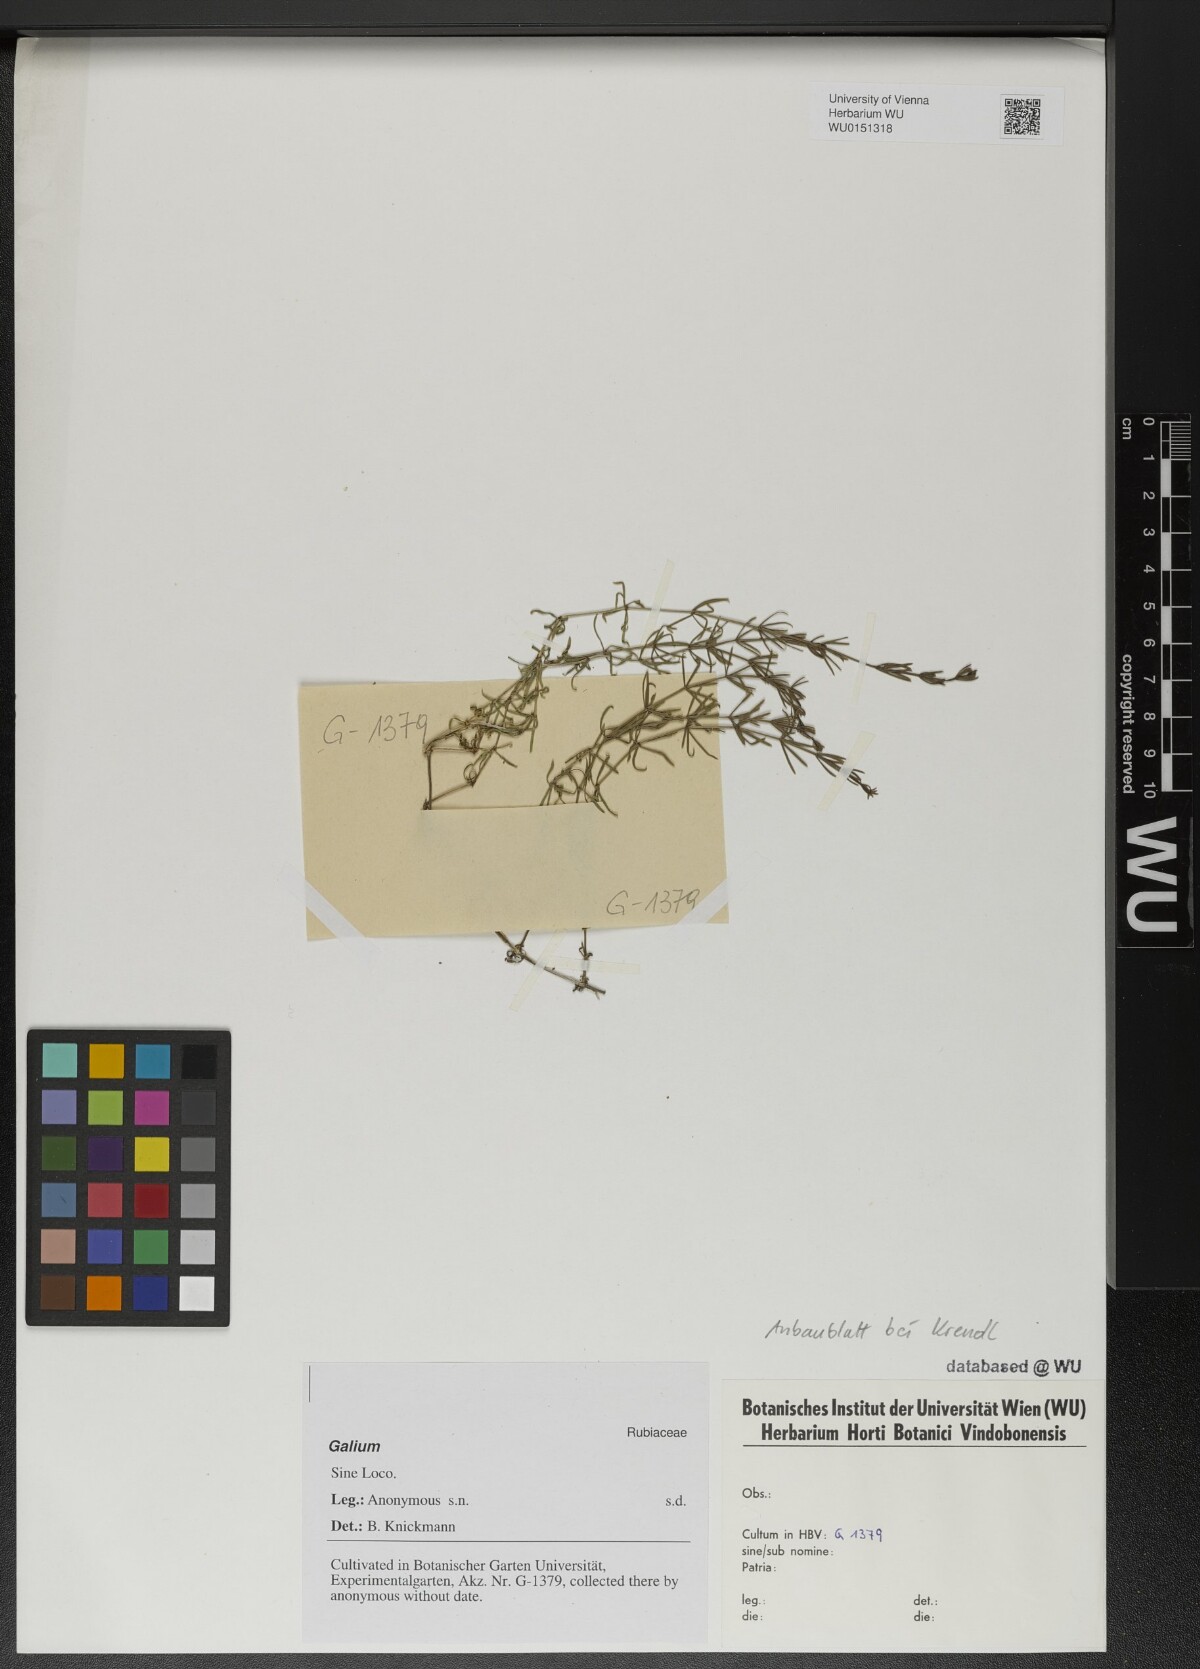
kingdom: Plantae
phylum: Tracheophyta
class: Magnoliopsida
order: Gentianales
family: Rubiaceae
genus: Galium
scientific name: Galium
